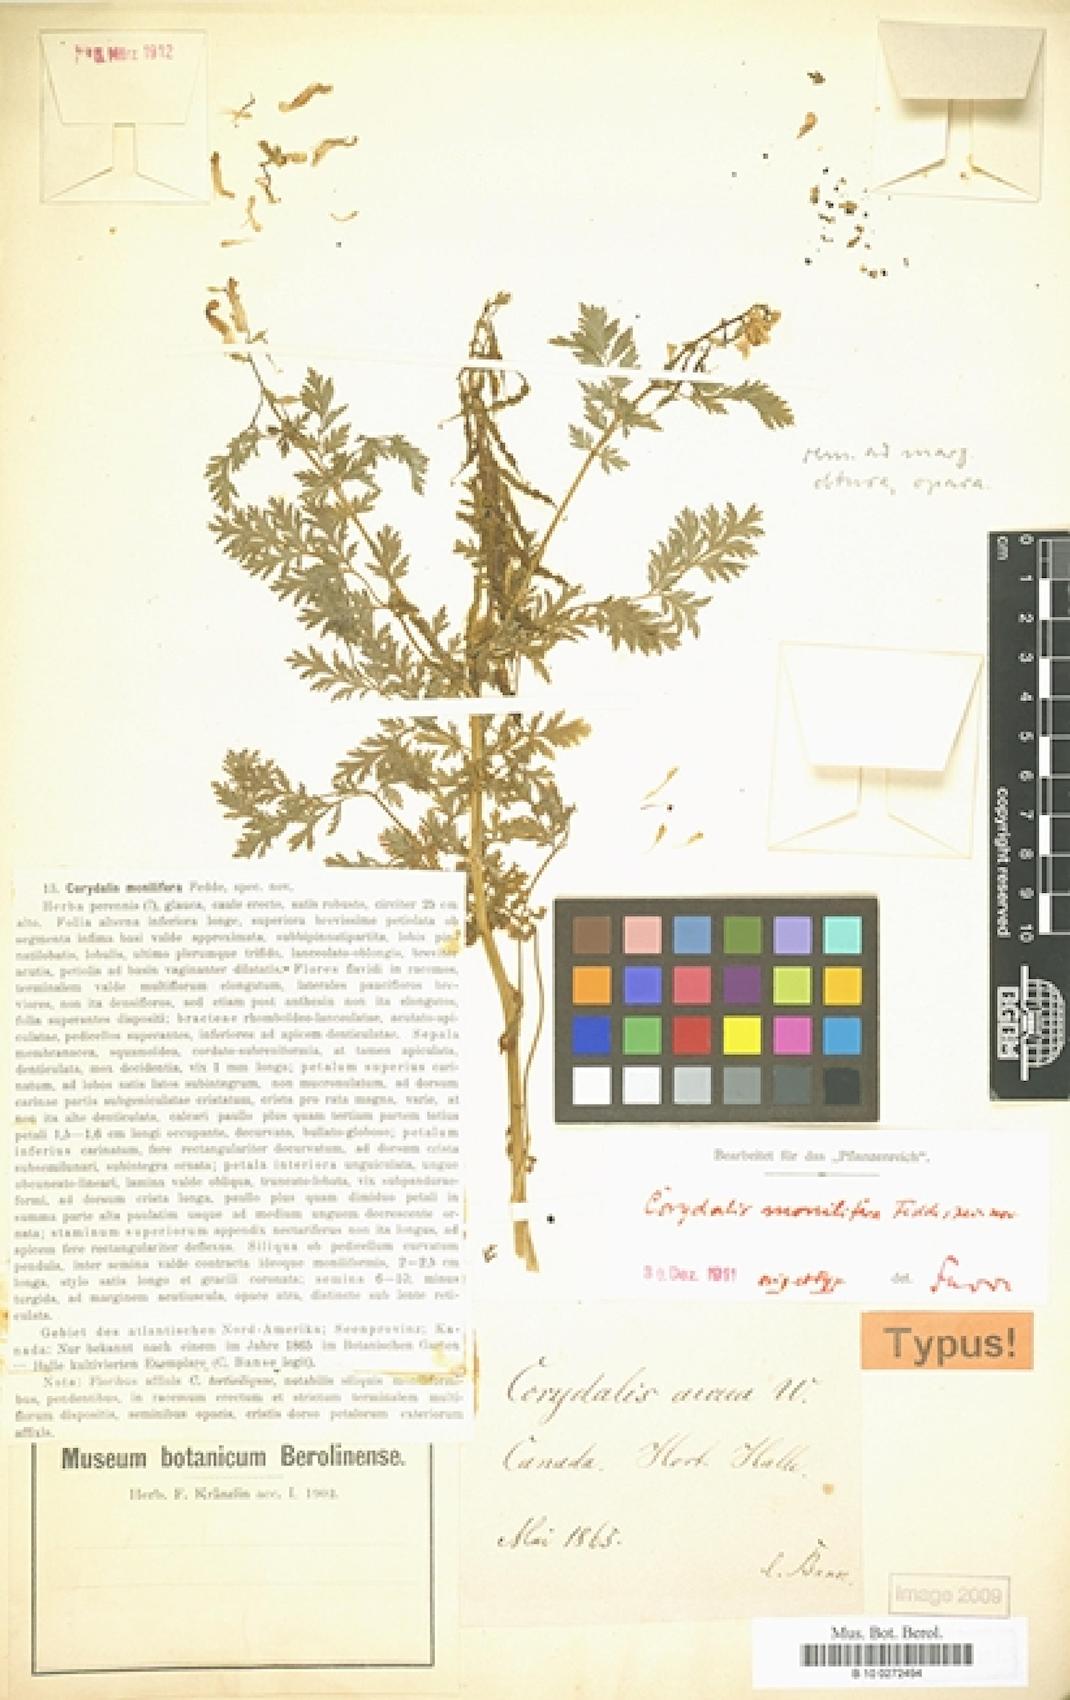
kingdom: Plantae
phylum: Tracheophyta
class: Magnoliopsida
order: Ranunculales
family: Papaveraceae
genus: Corydalis
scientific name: Corydalis aurea
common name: Golden corydalis
